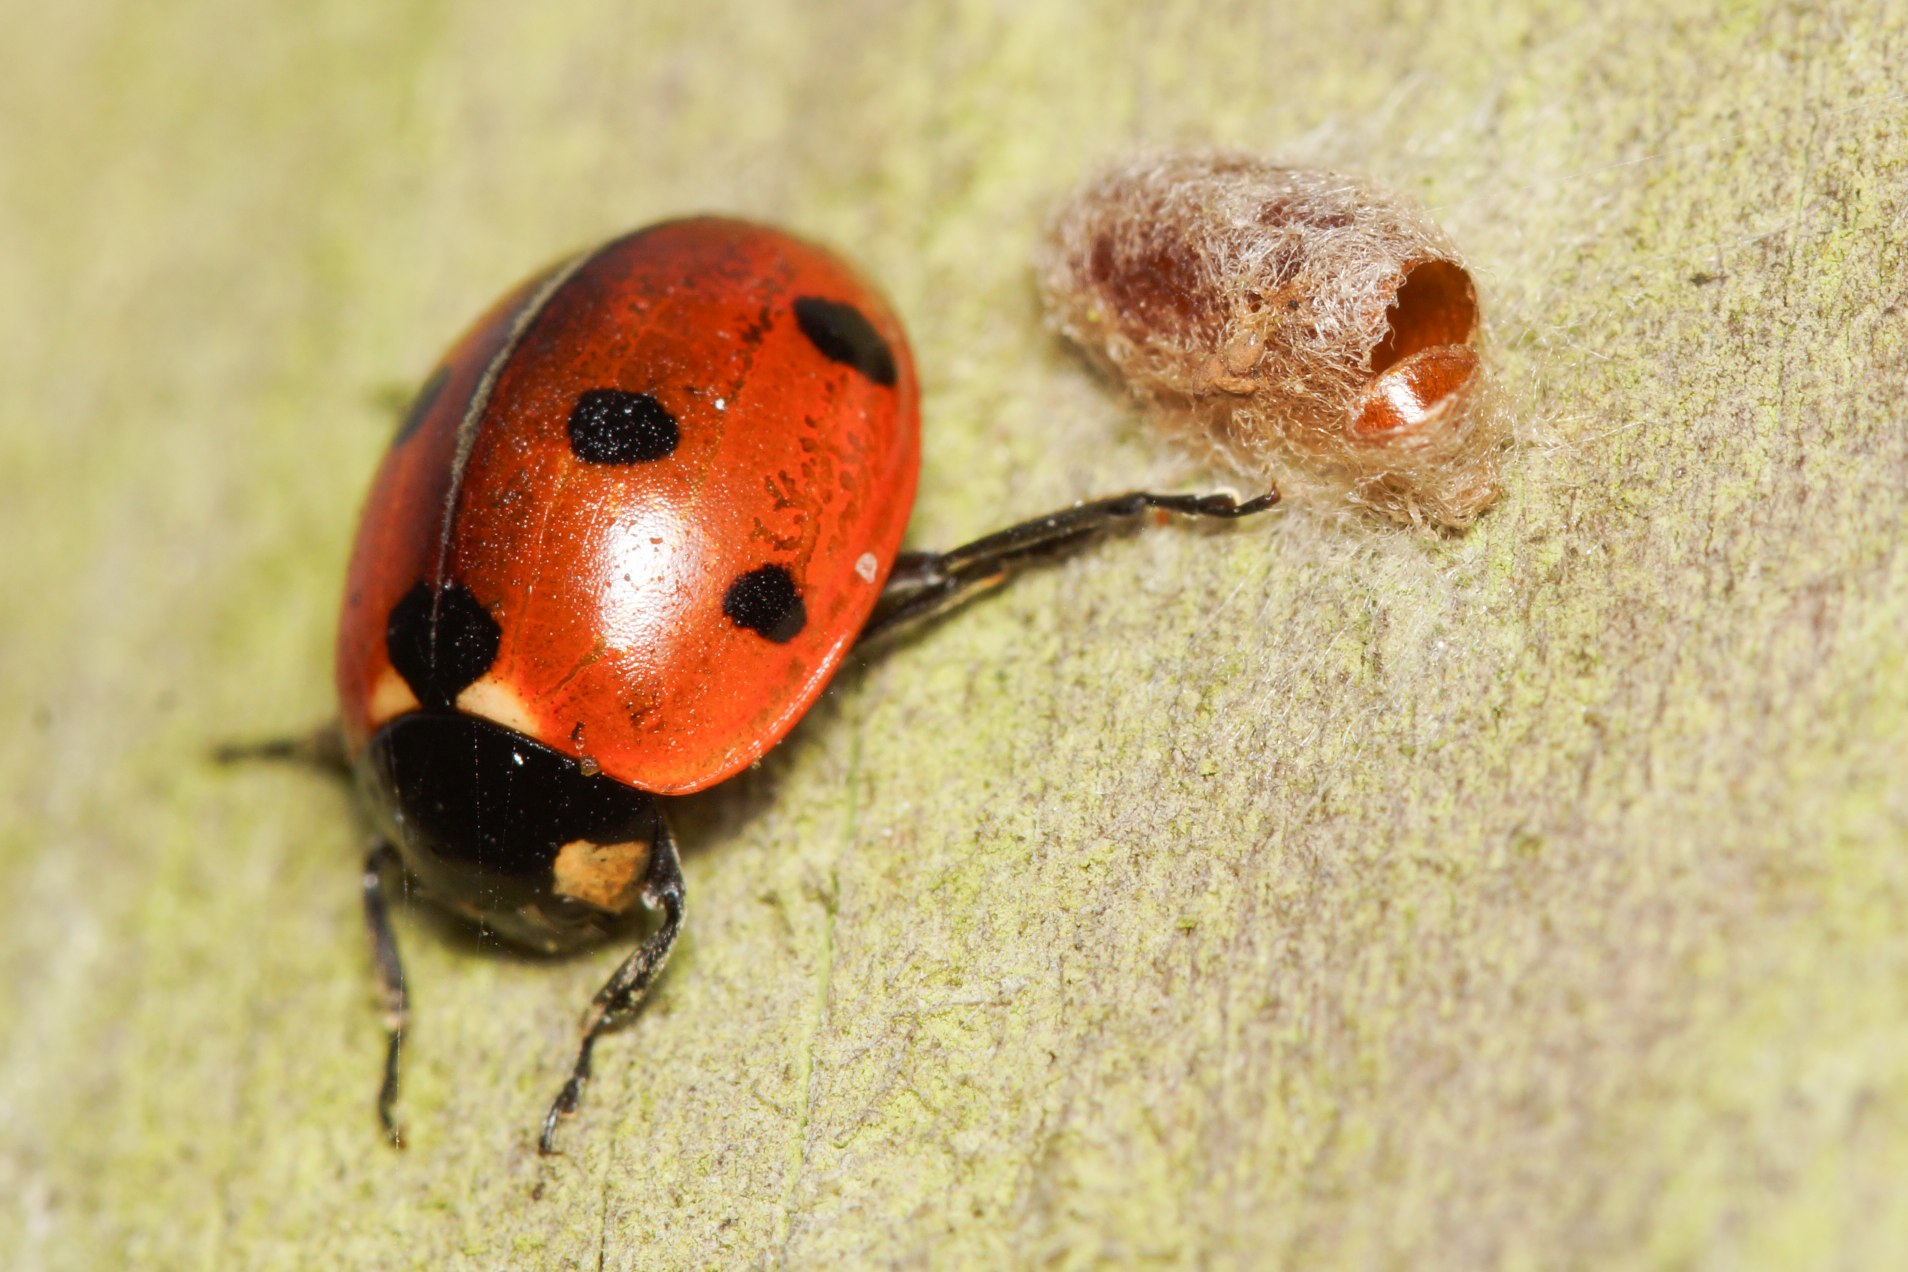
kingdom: Animalia
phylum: Arthropoda
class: Insecta
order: Hymenoptera
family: Braconidae
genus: Dinocampus
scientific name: Dinocampus coccinellae
